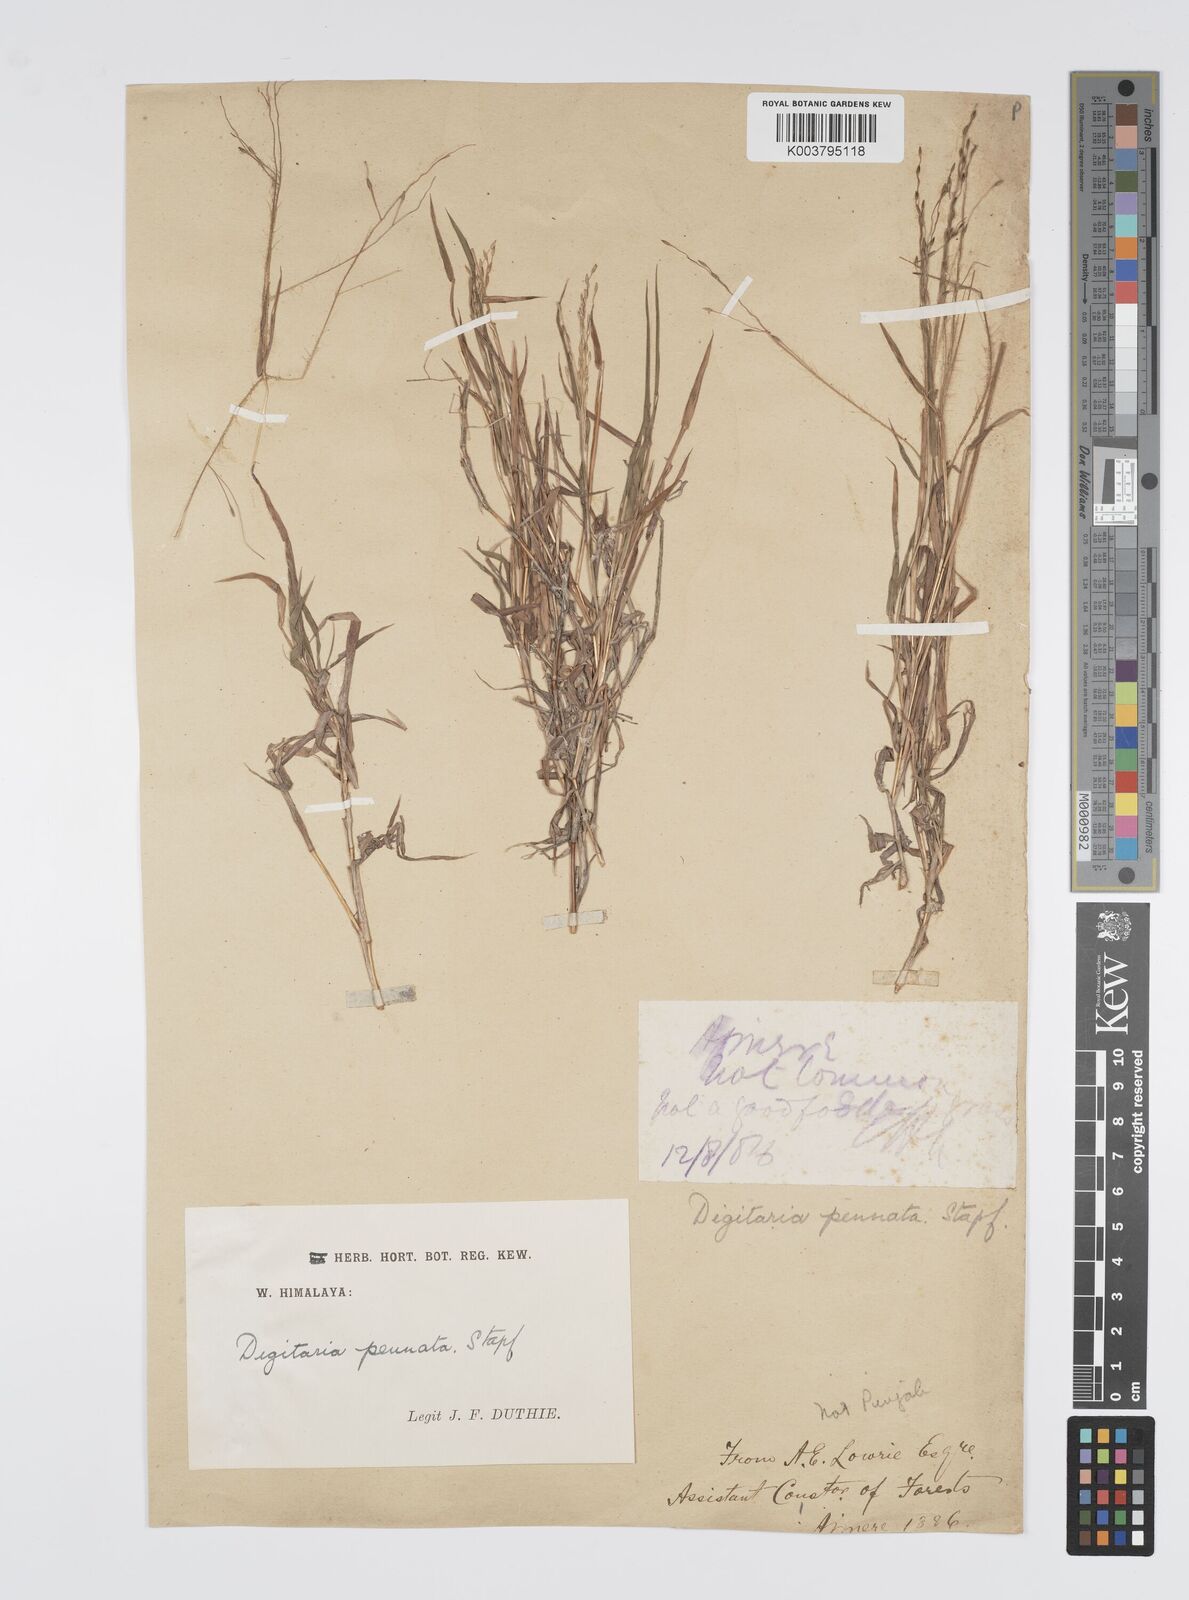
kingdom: Plantae
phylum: Tracheophyta
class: Liliopsida
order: Poales
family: Poaceae
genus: Digitaria
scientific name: Digitaria pennata
